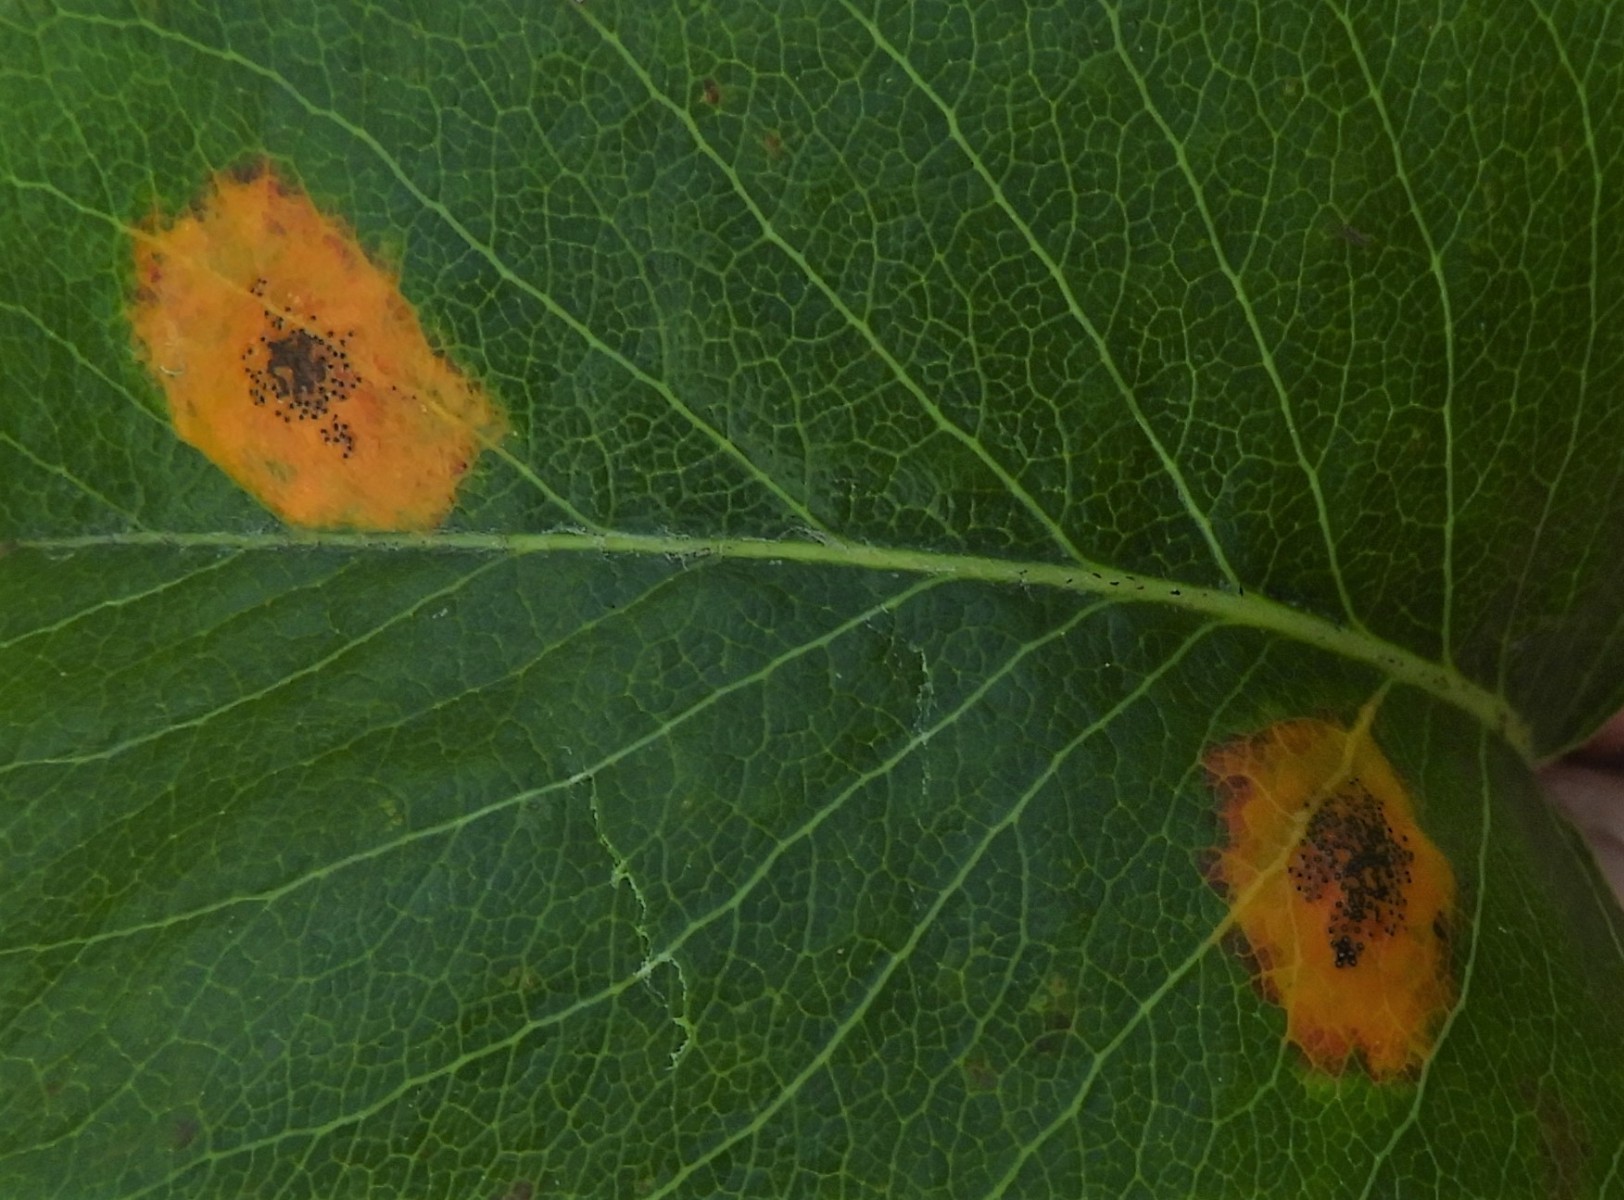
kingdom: Fungi
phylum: Basidiomycota
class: Pucciniomycetes
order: Pucciniales
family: Gymnosporangiaceae
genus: Gymnosporangium
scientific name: Gymnosporangium sabinae
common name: pæregitter-bævrerust
